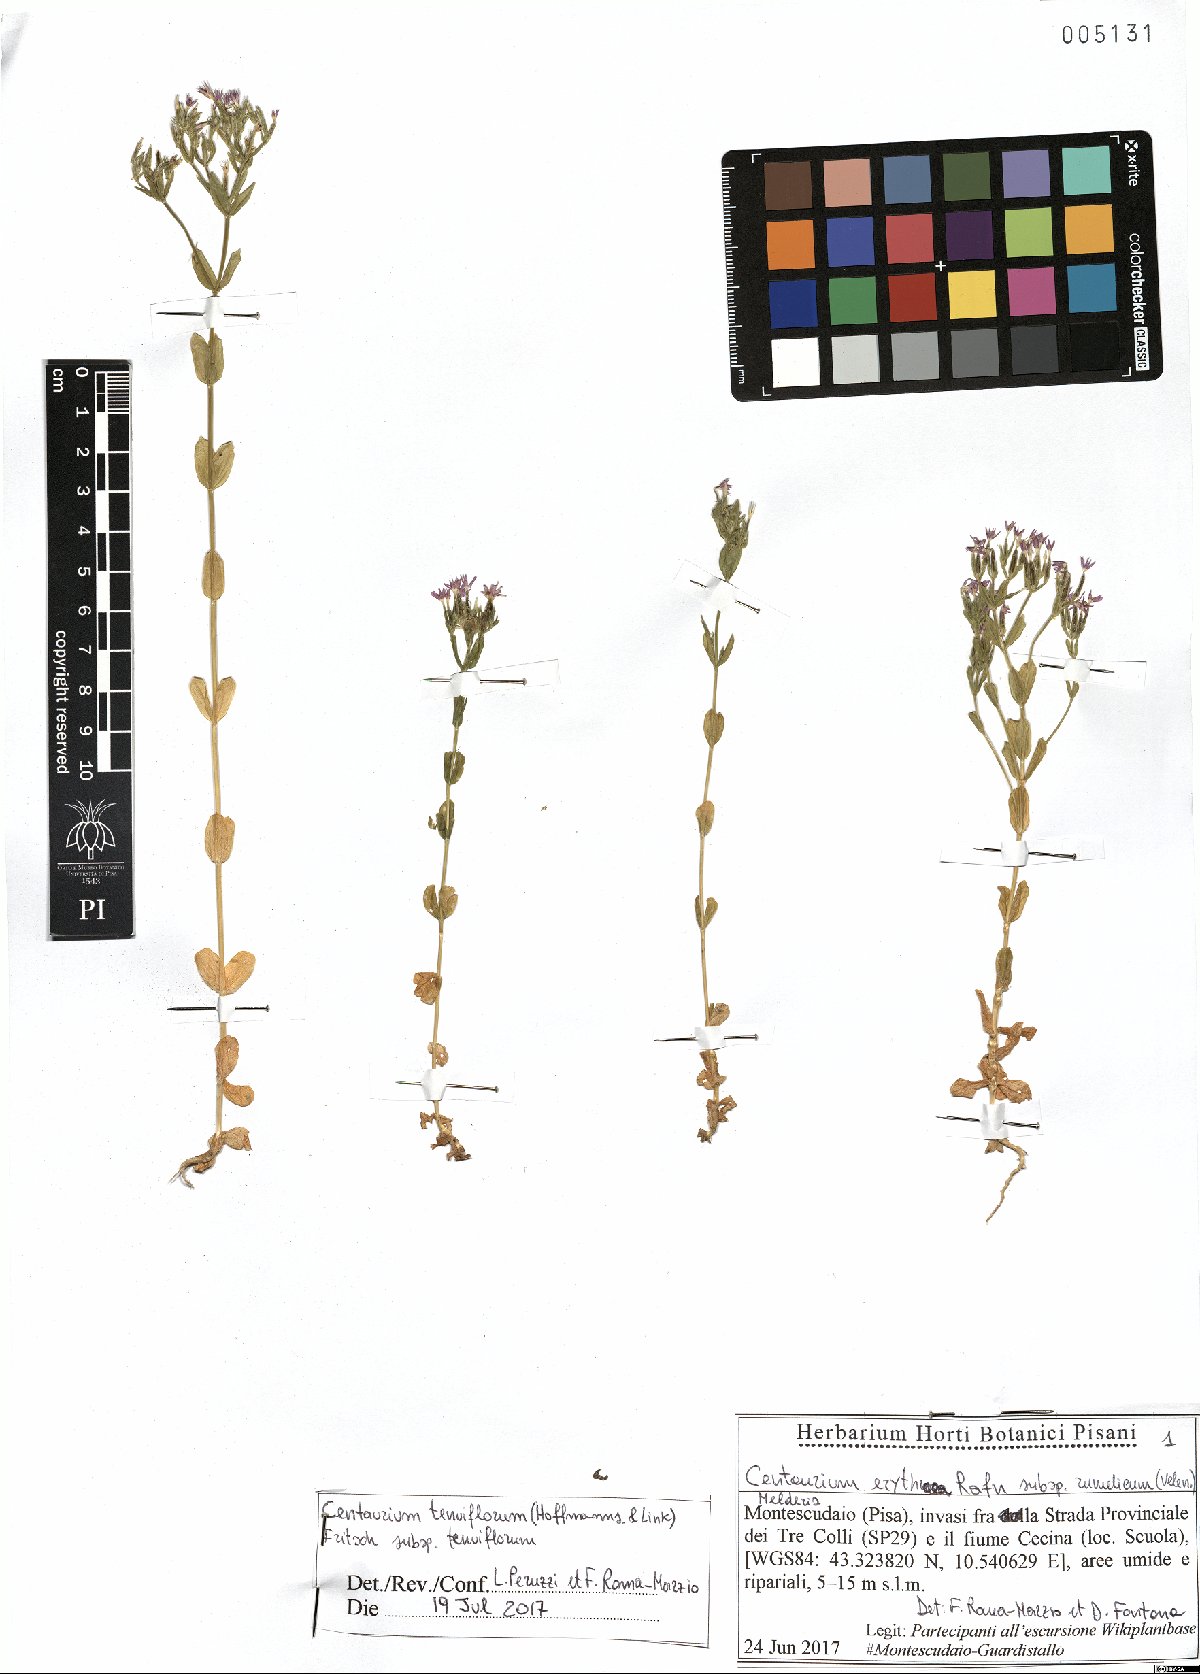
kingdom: Plantae
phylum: Tracheophyta
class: Magnoliopsida
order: Gentianales
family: Gentianaceae
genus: Centaurium
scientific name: Centaurium tenuiflorum
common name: Slender centaury
